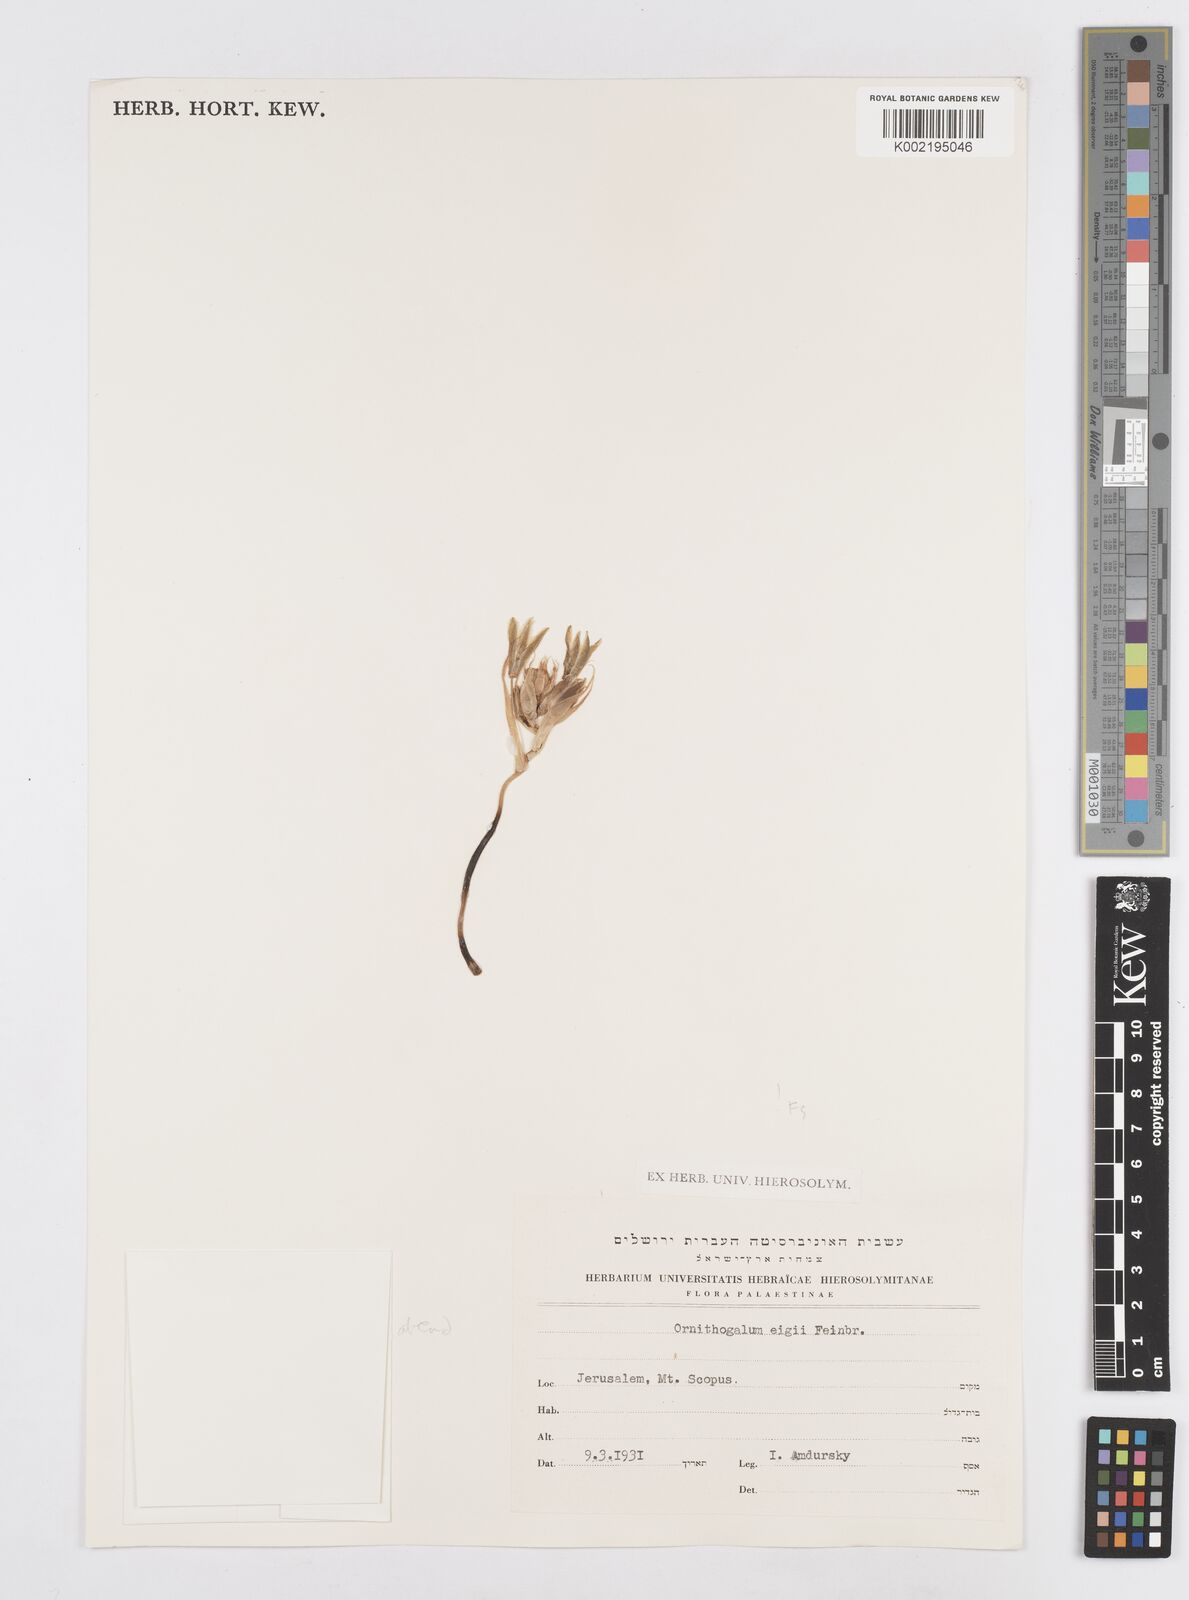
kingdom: Plantae
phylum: Tracheophyta
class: Liliopsida
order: Asparagales
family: Asparagaceae
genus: Ornithogalum
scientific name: Ornithogalum neurostegium
